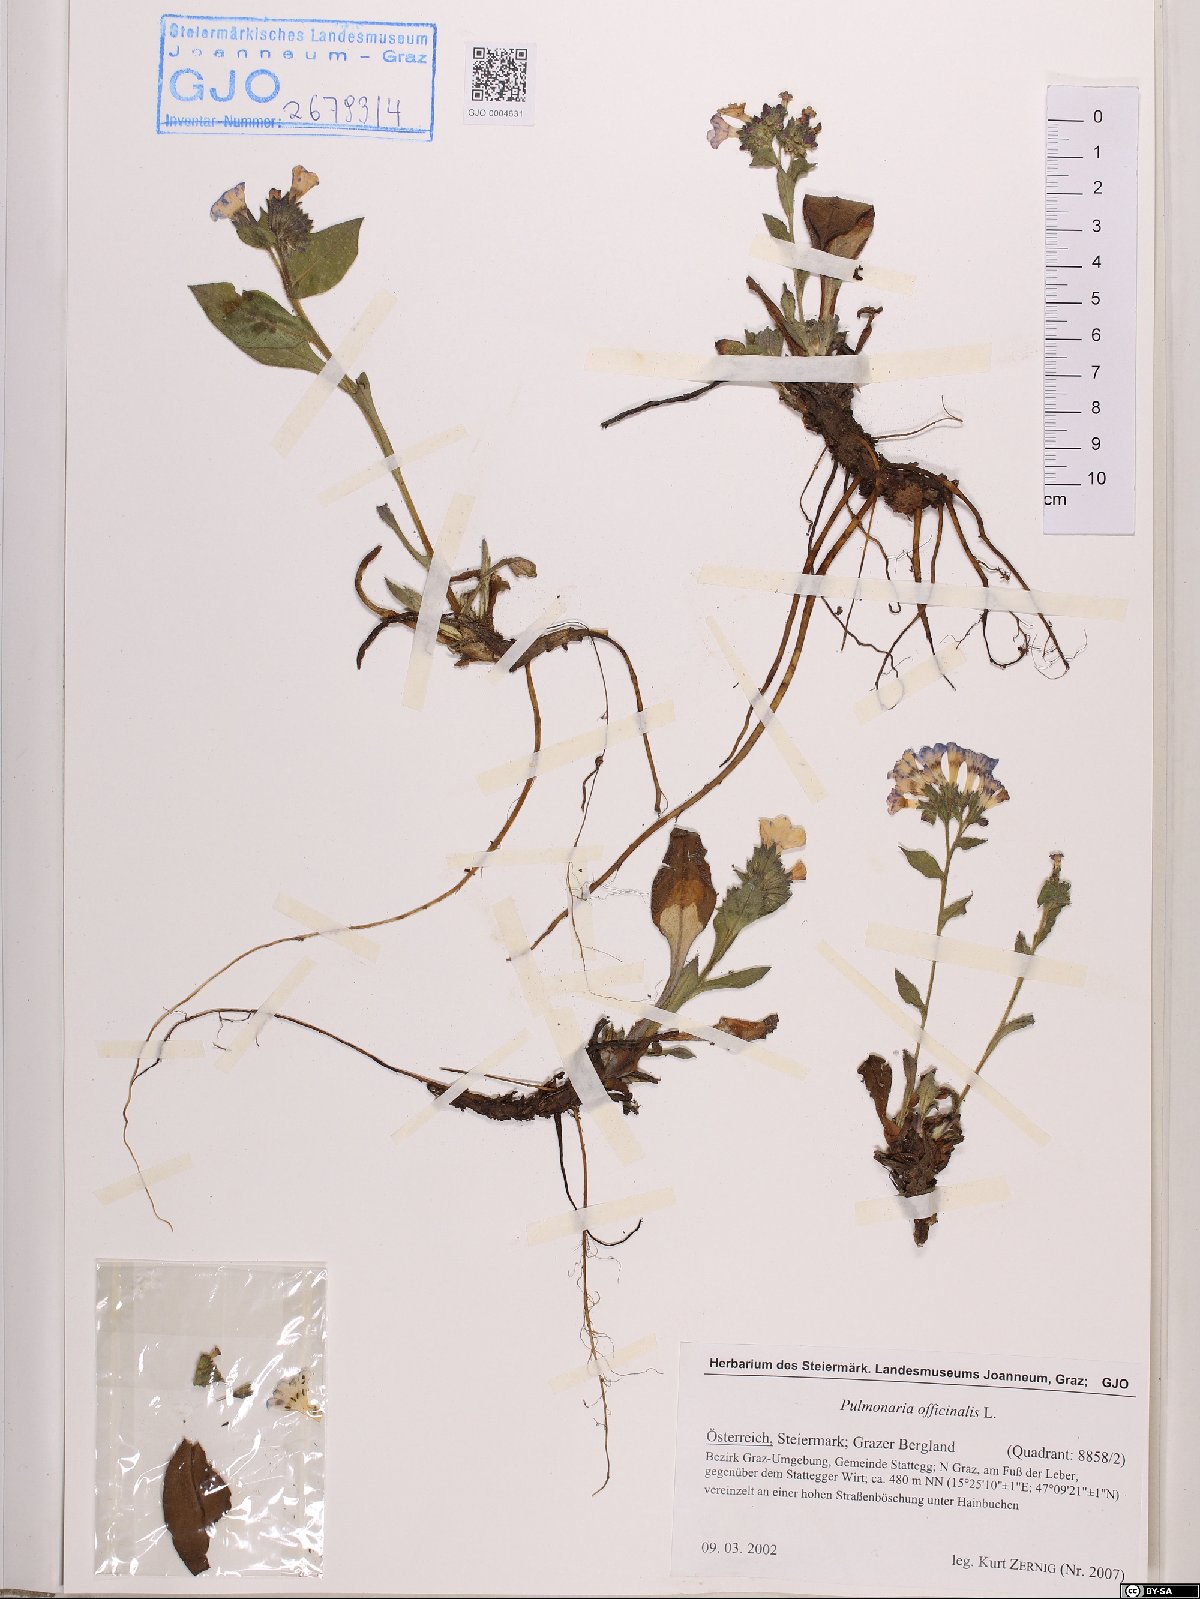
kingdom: Plantae
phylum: Tracheophyta
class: Magnoliopsida
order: Boraginales
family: Boraginaceae
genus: Pulmonaria
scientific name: Pulmonaria officinalis
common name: Lungwort
